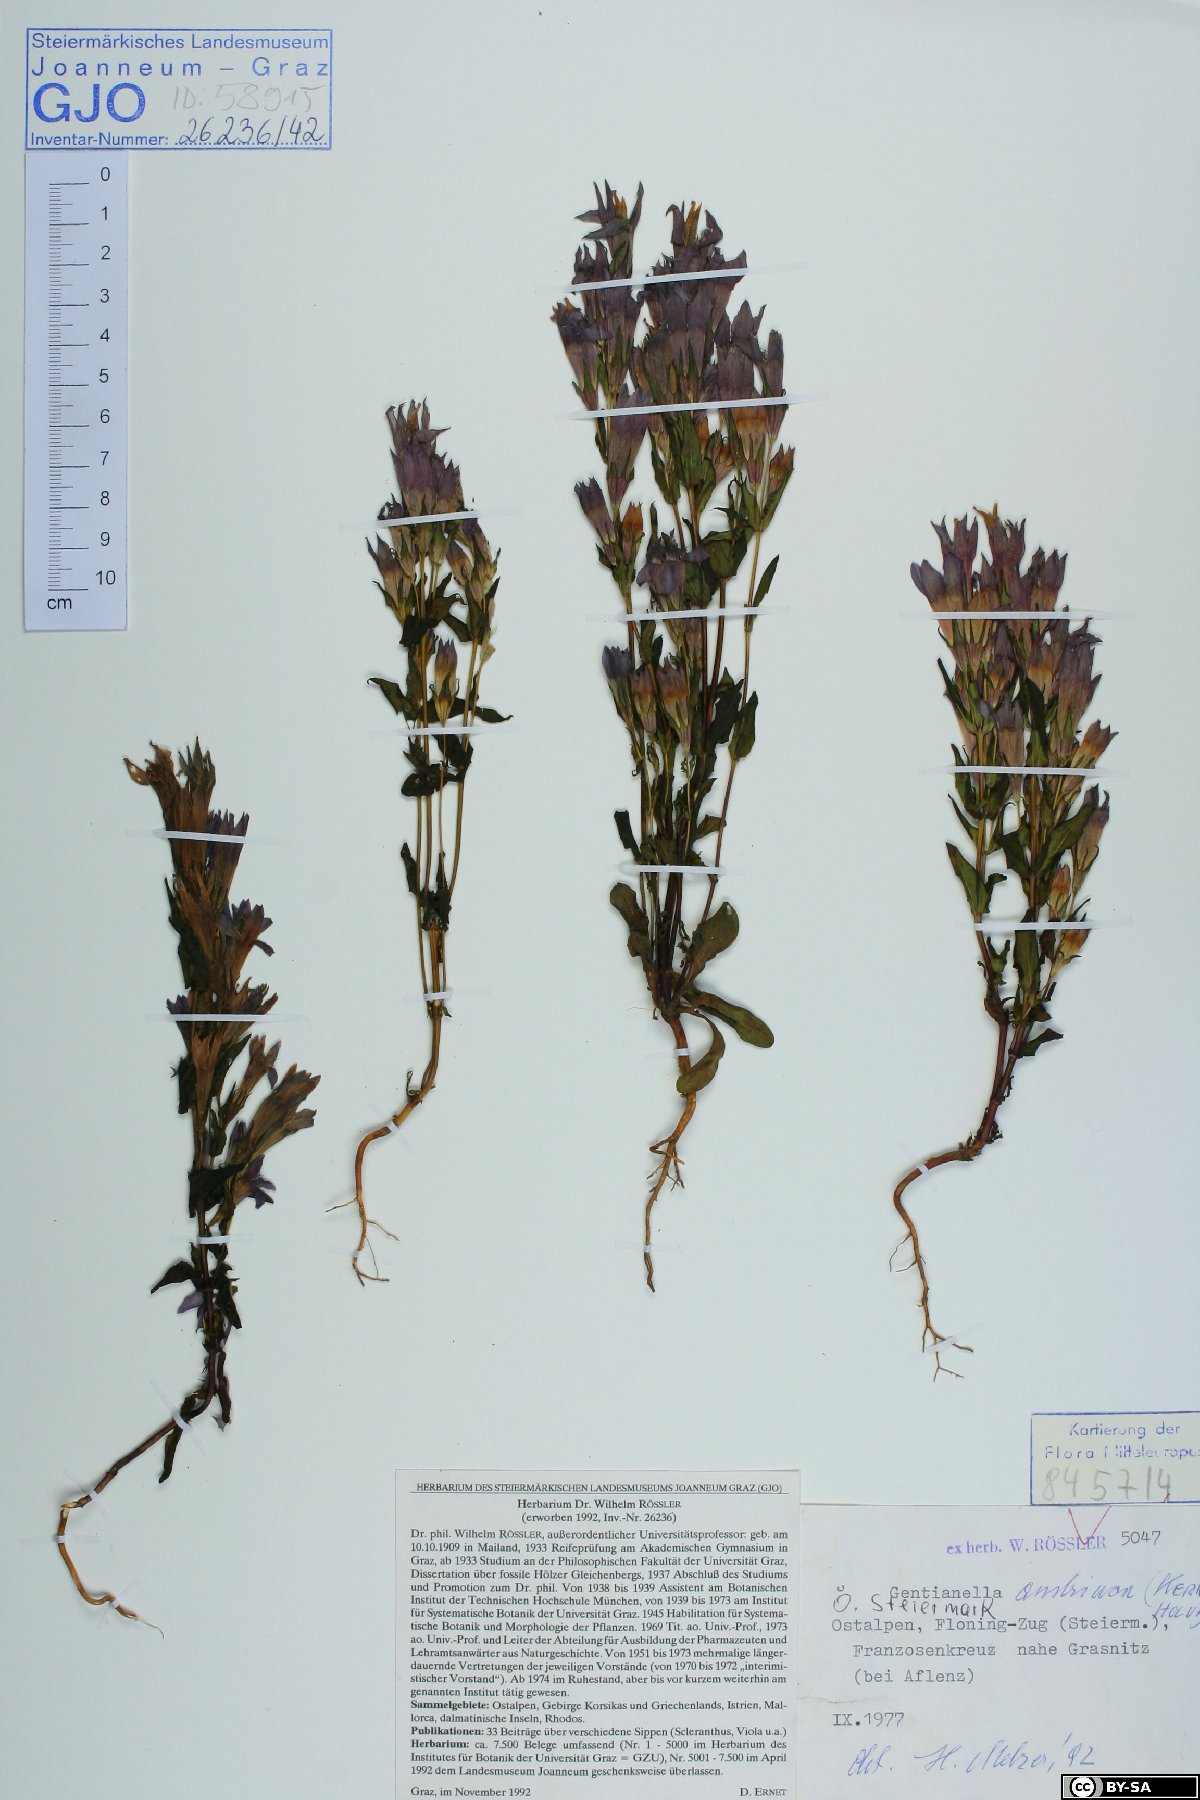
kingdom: Plantae
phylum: Tracheophyta
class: Magnoliopsida
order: Gentianales
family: Gentianaceae
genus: Gentianella
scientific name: Gentianella austriaca
